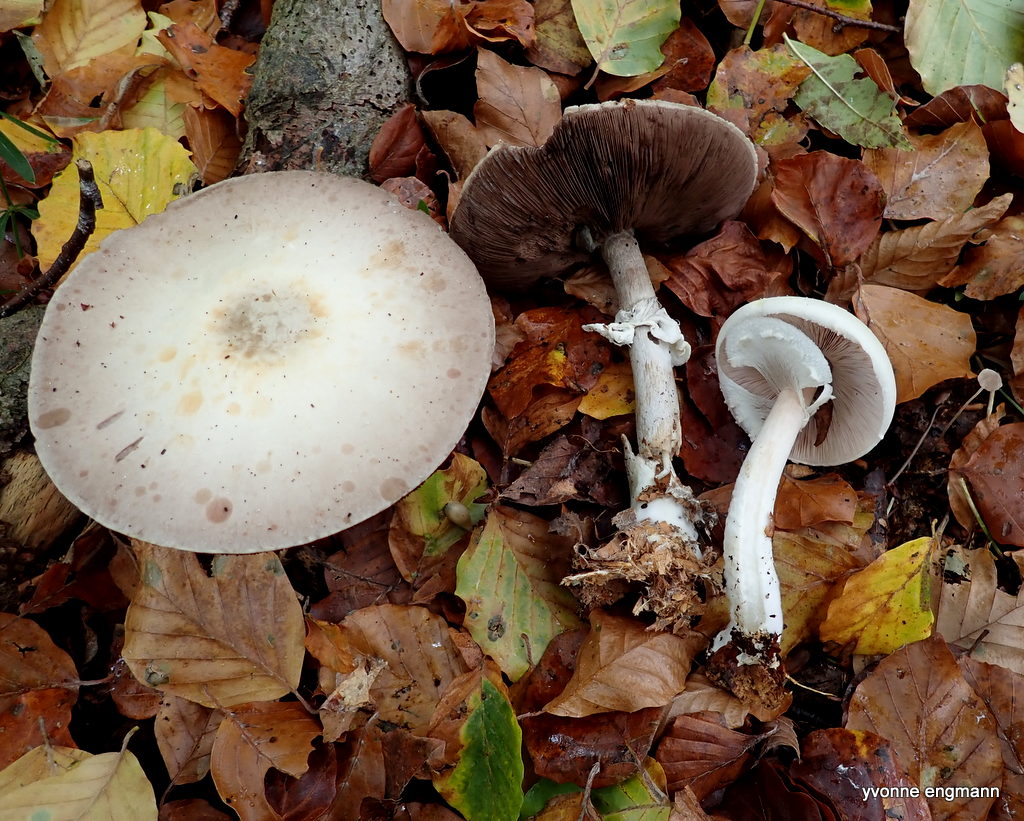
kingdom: Fungi
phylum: Basidiomycota
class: Agaricomycetes
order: Agaricales
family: Agaricaceae
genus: Agaricus
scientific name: Agaricus sylvicola
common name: skiveknoldet champignon
